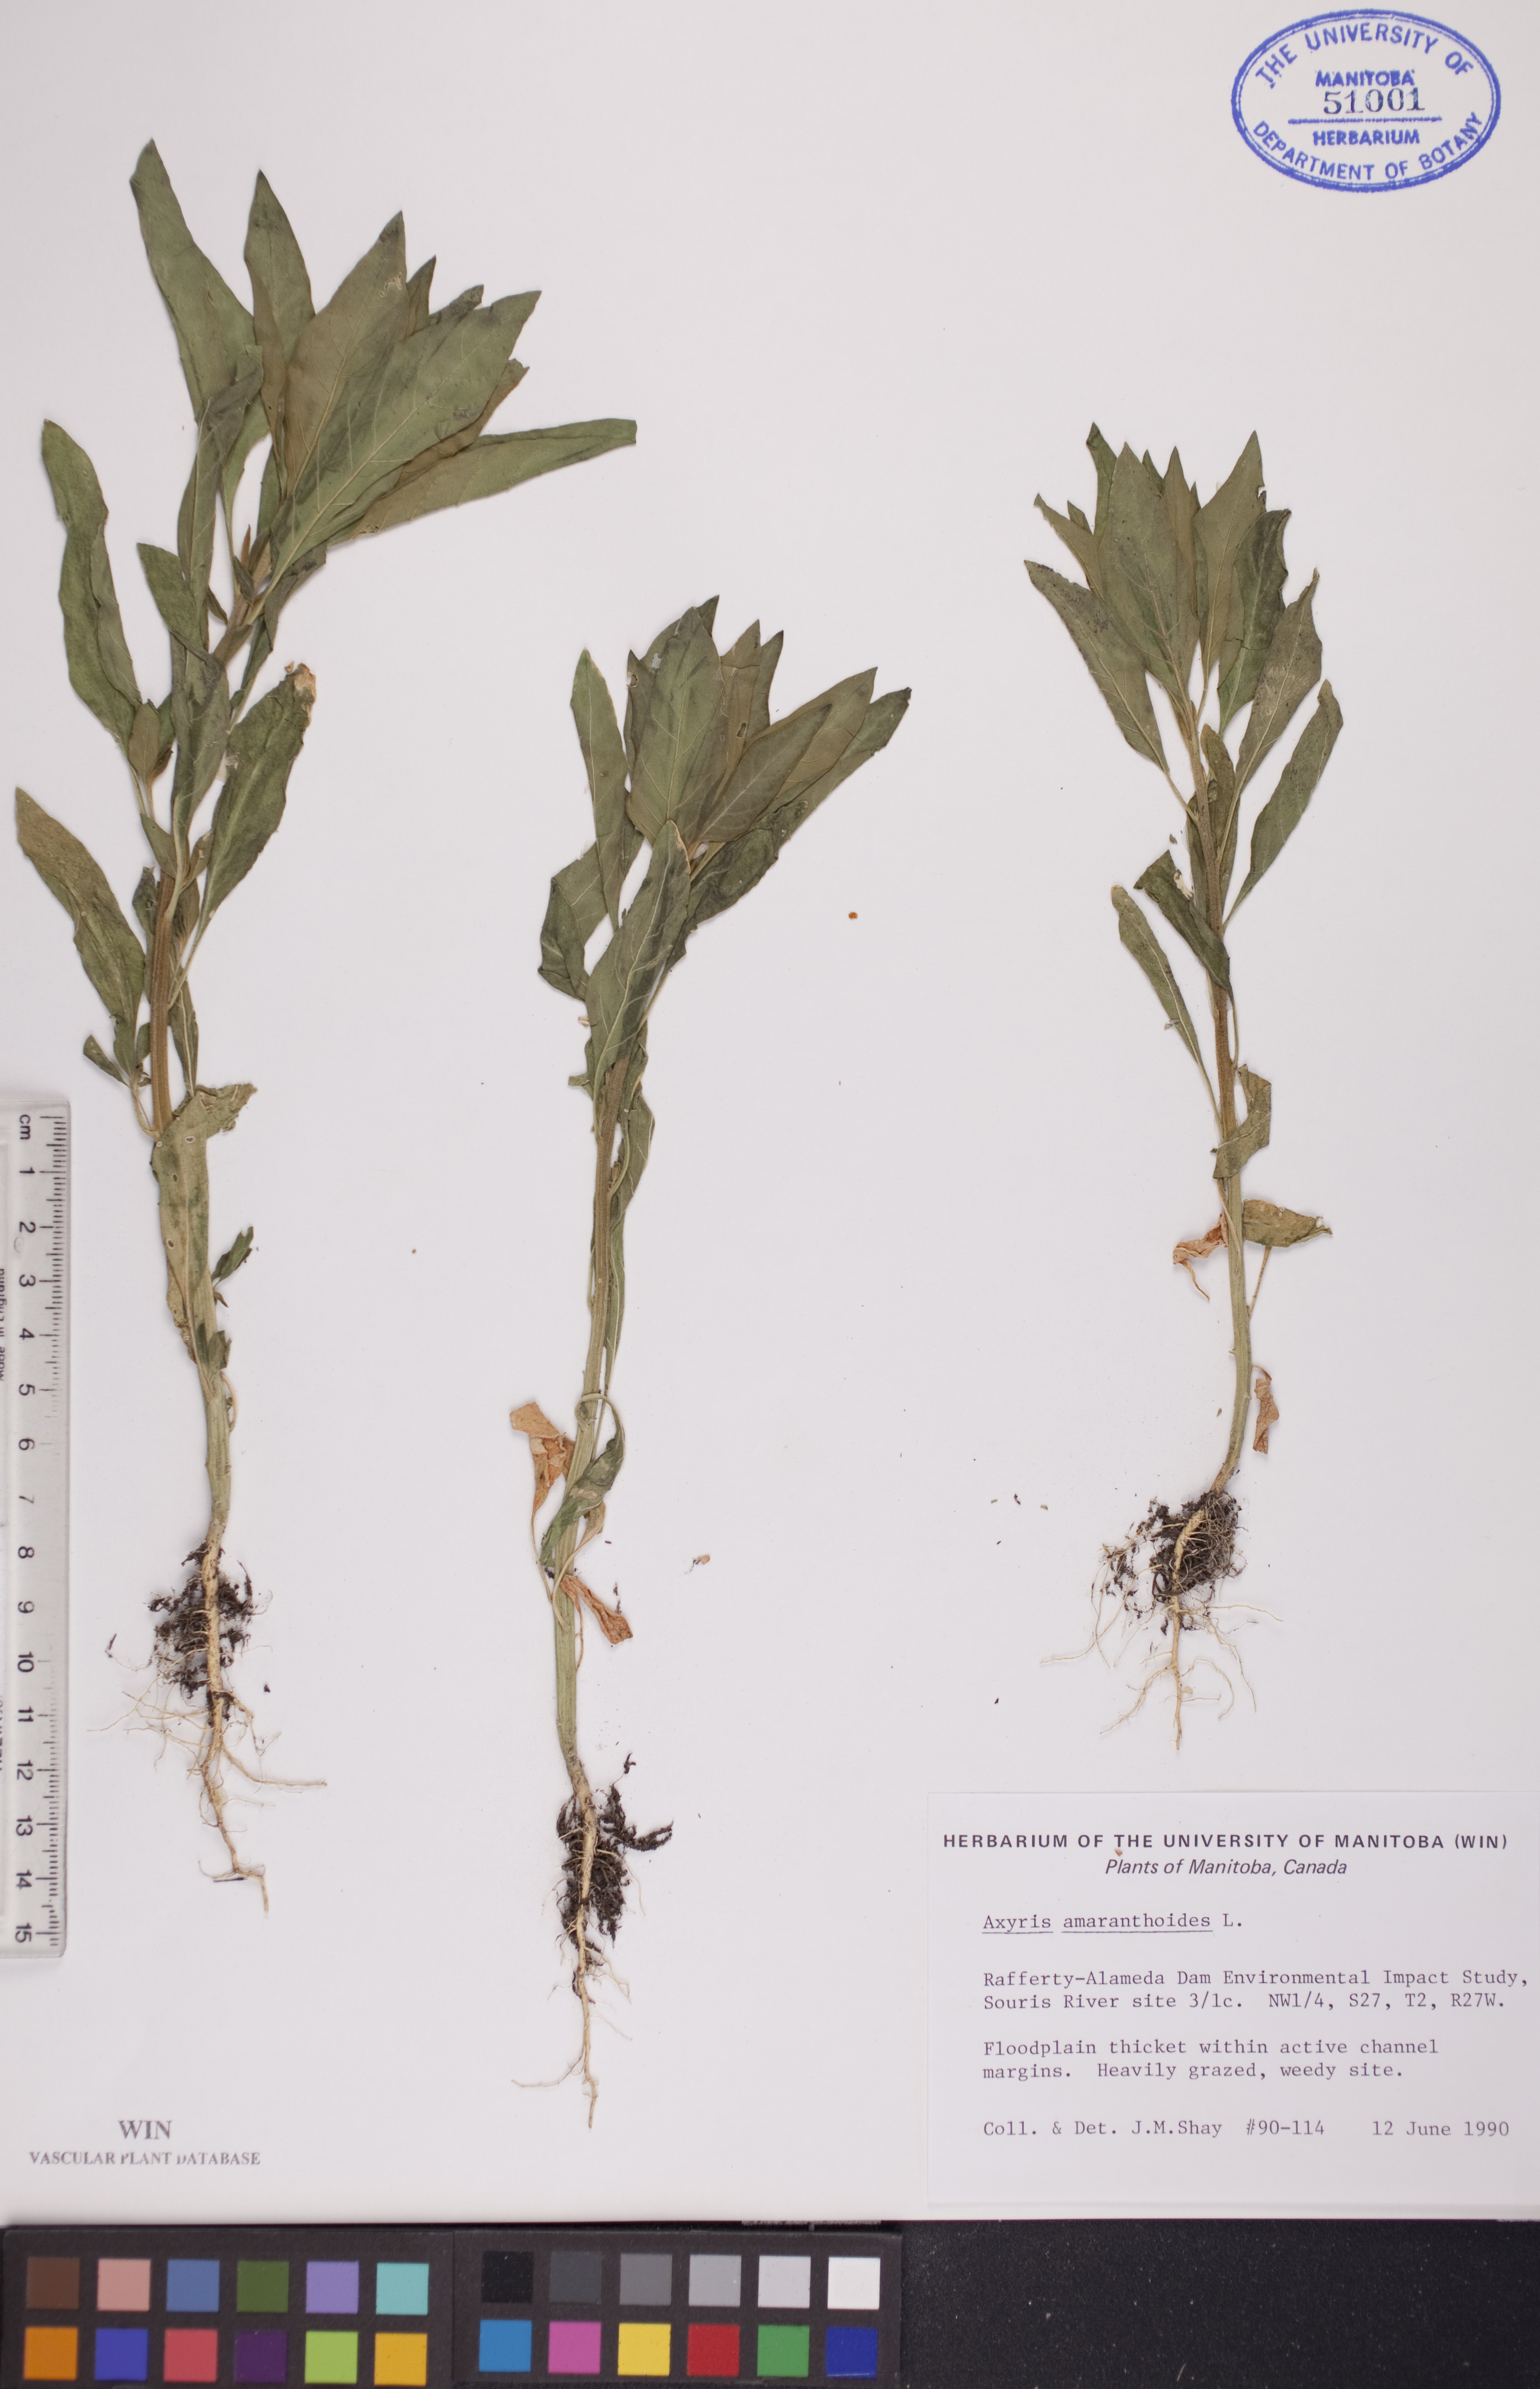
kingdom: Plantae
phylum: Tracheophyta
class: Magnoliopsida
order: Caryophyllales
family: Amaranthaceae
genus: Axyris
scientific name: Axyris amaranthoides
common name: Russian pigweed
